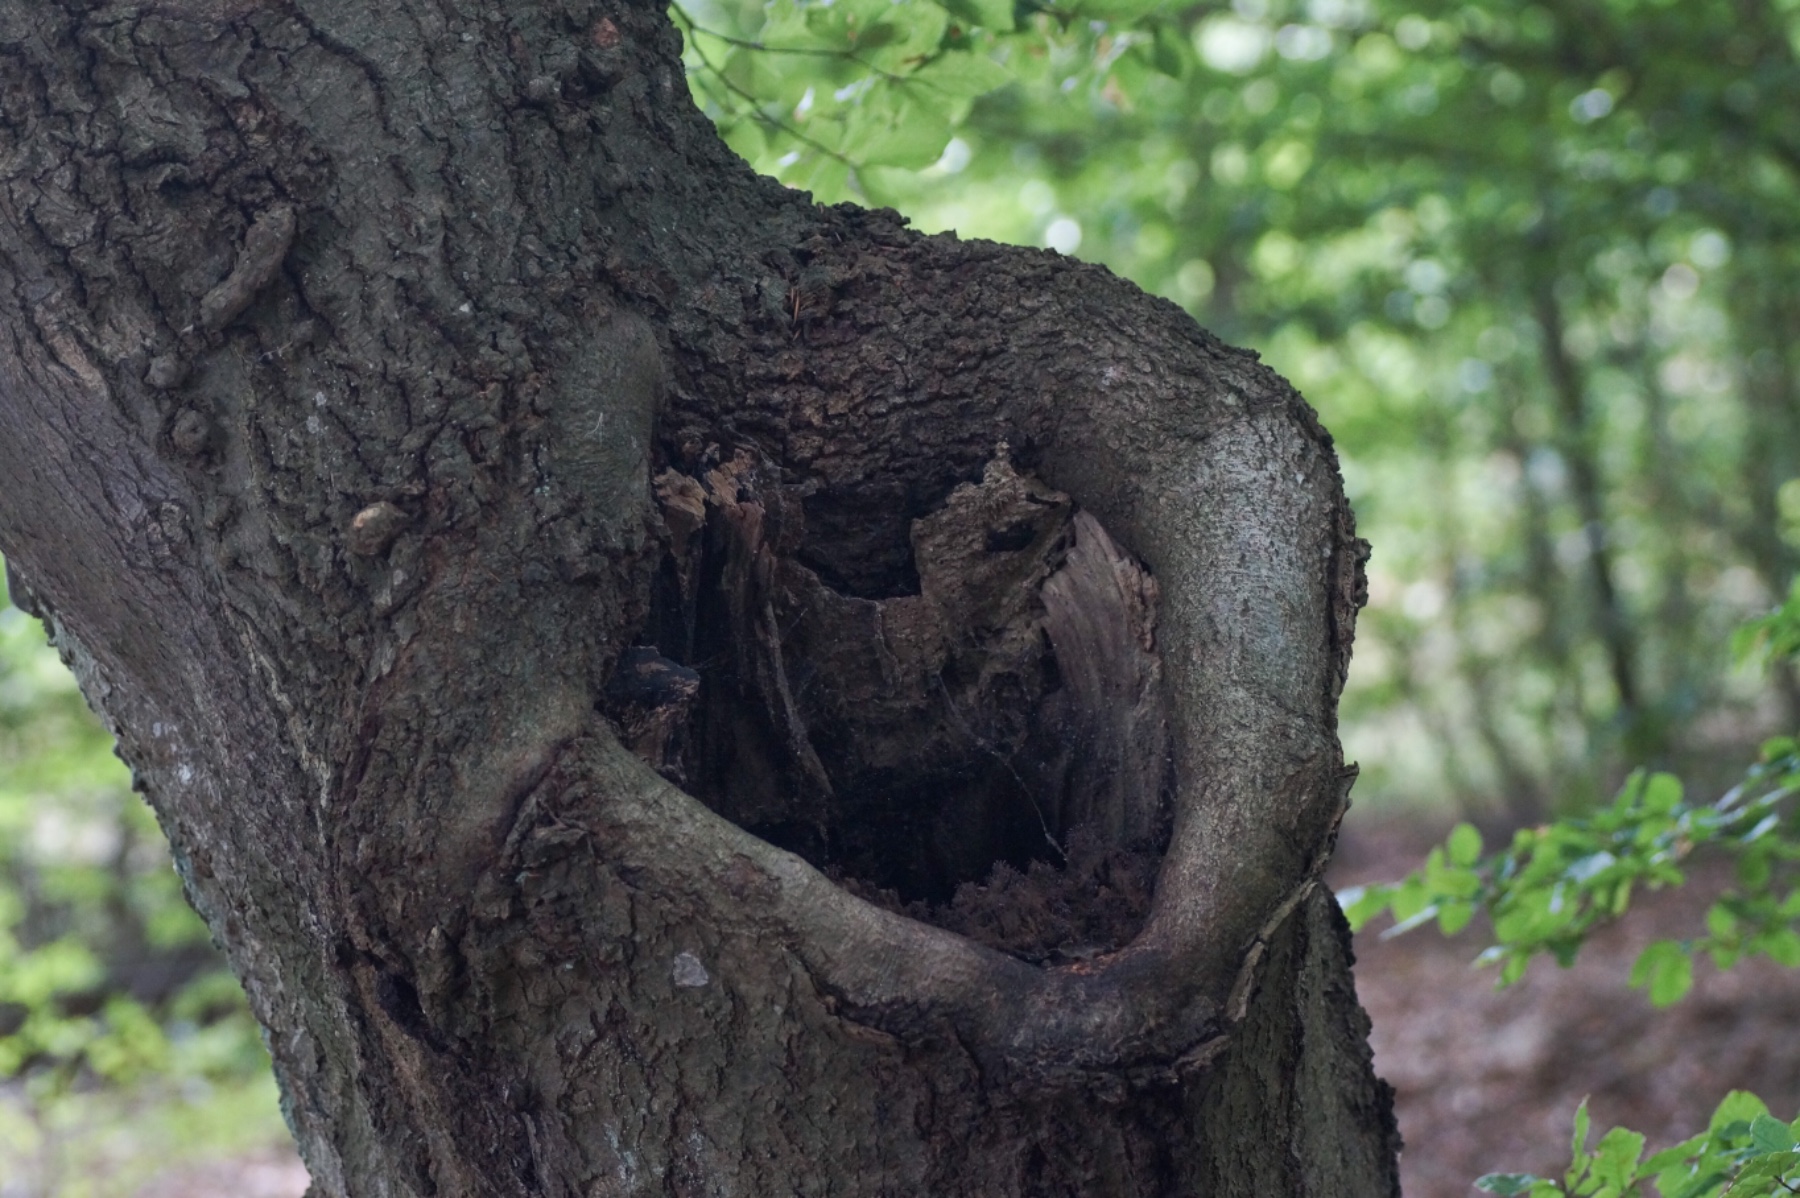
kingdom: Protozoa
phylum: Mycetozoa
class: Myxomycetes
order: Stemonitidales
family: Stemonitidaceae
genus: Stemonitopsis
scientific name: Stemonitopsis typhina
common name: skinnende støvkølle
